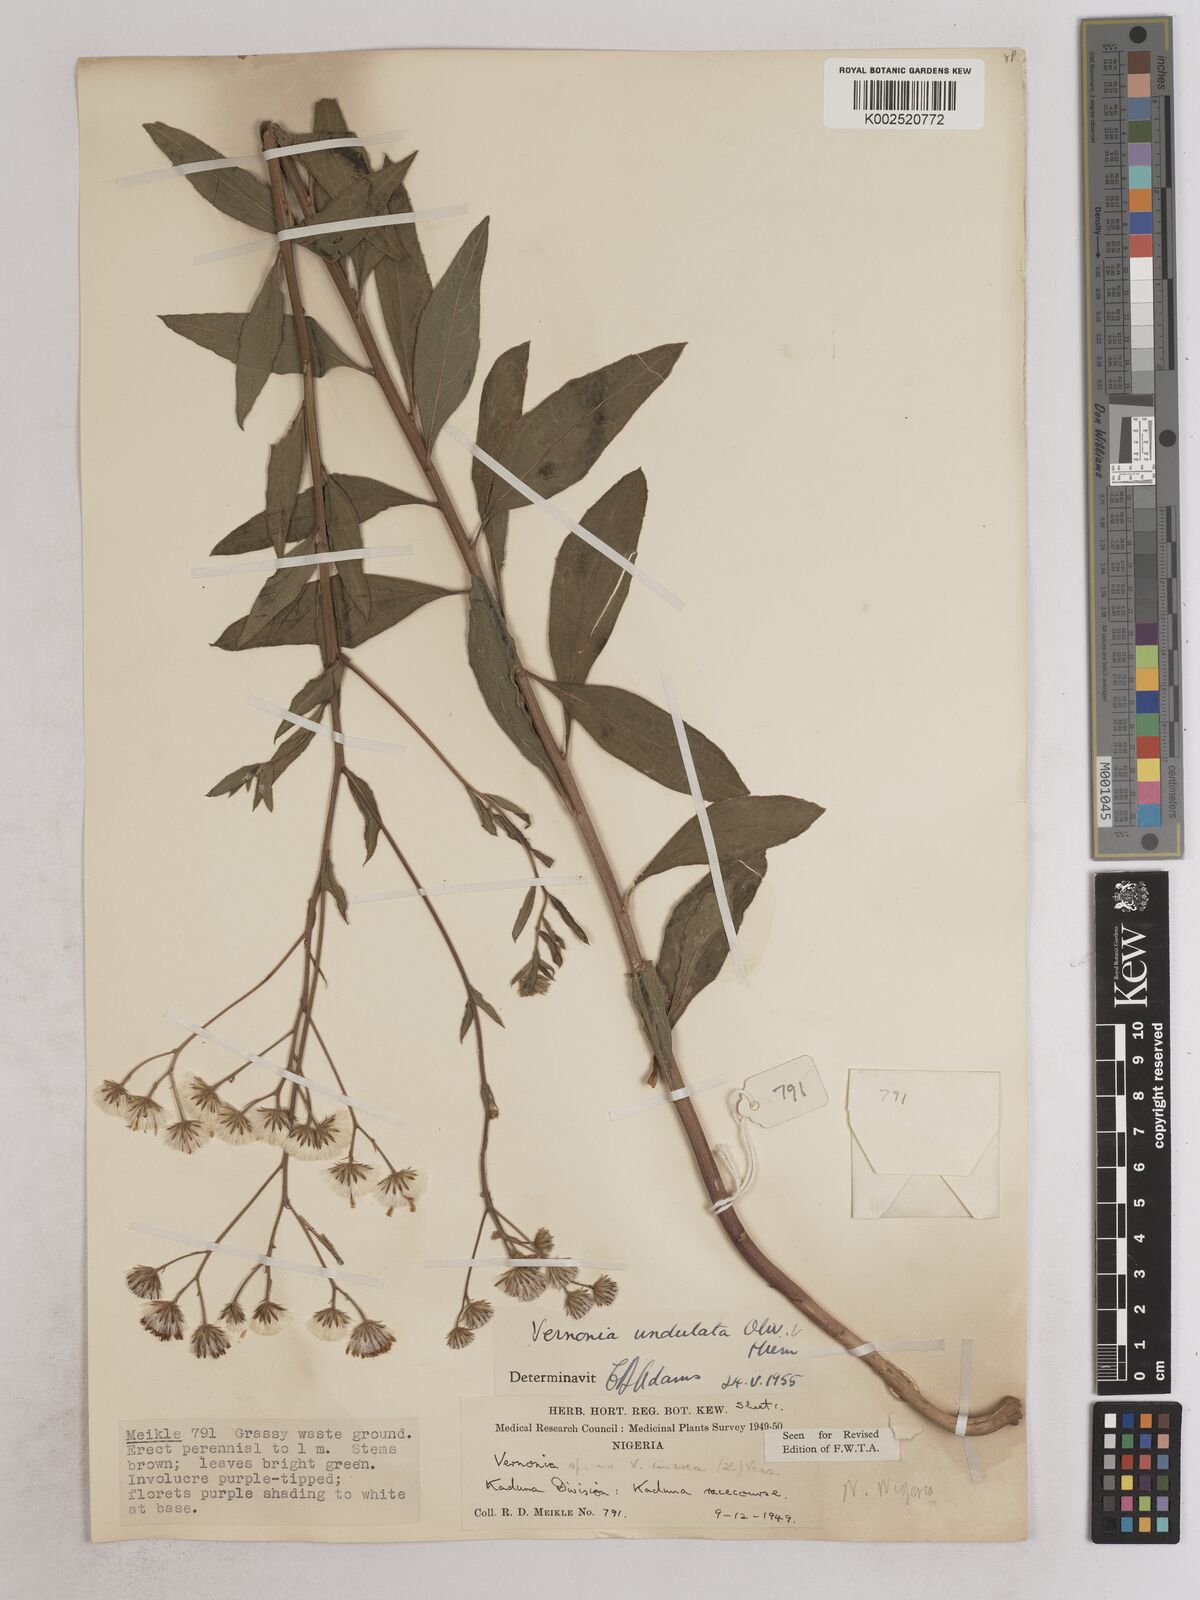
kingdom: Plantae
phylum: Tracheophyta
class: Magnoliopsida
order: Asterales
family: Asteraceae
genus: Vernonia
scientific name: Vernonia golungensis
